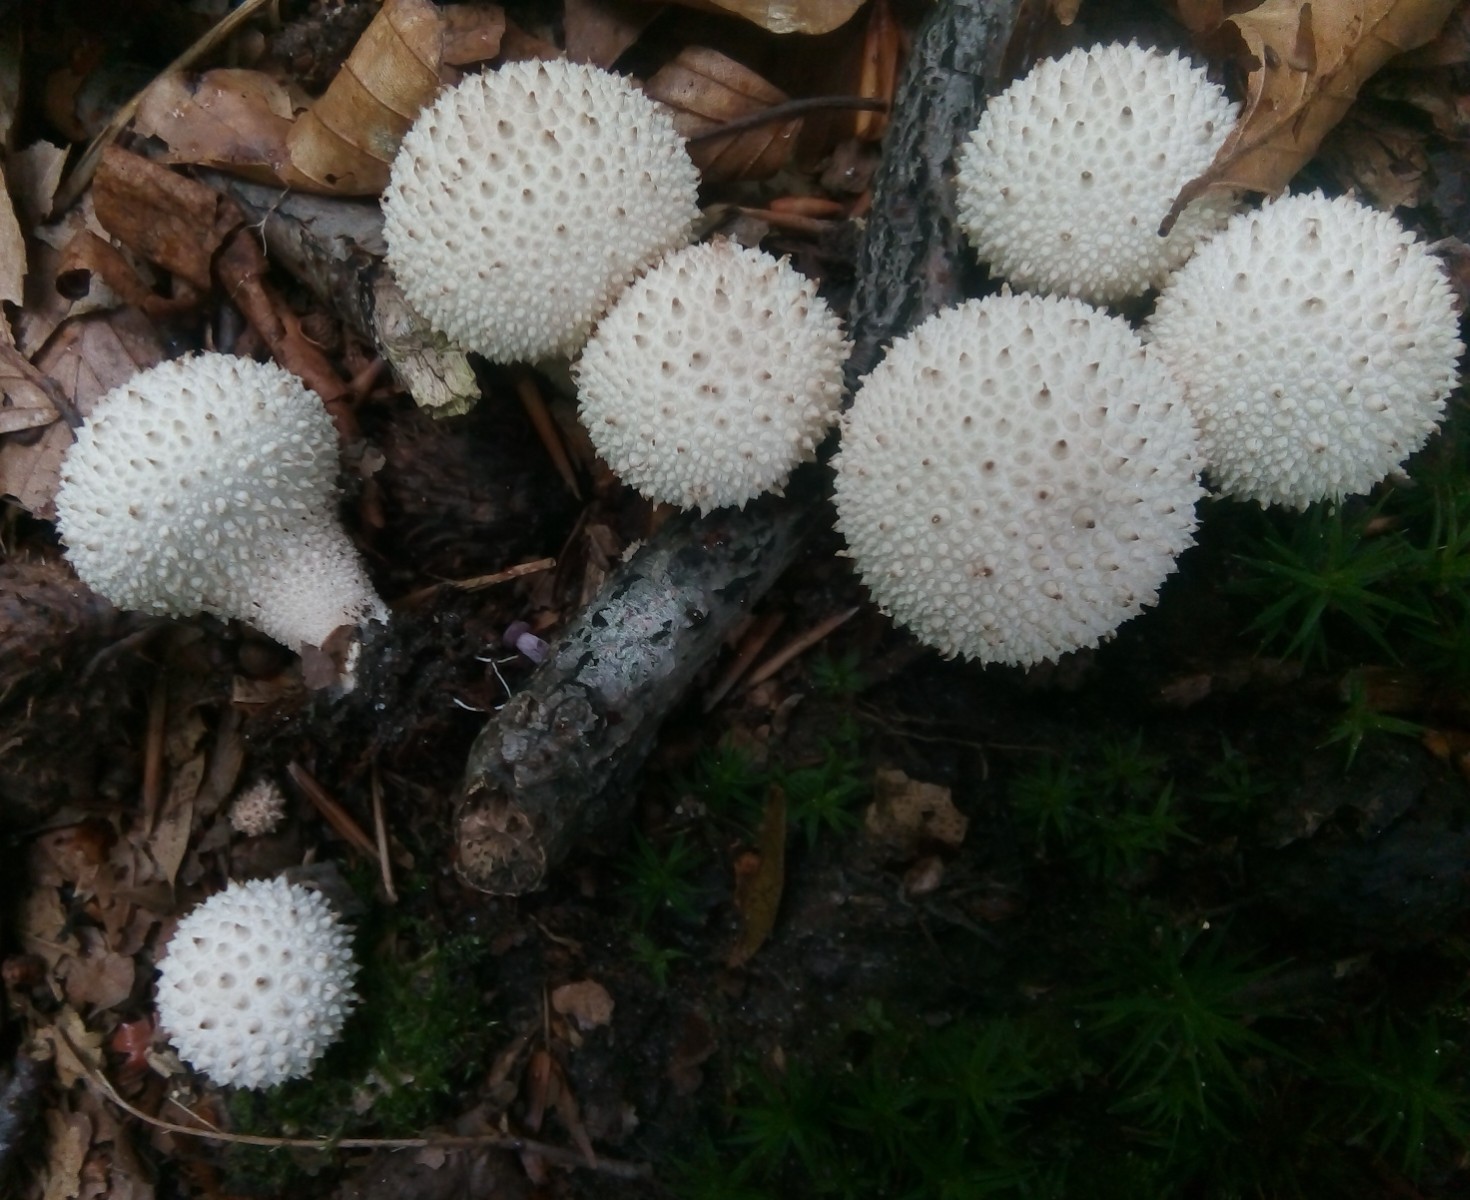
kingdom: Fungi
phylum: Basidiomycota
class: Agaricomycetes
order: Agaricales
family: Lycoperdaceae
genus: Lycoperdon
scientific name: Lycoperdon perlatum
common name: krystal-støvbold
